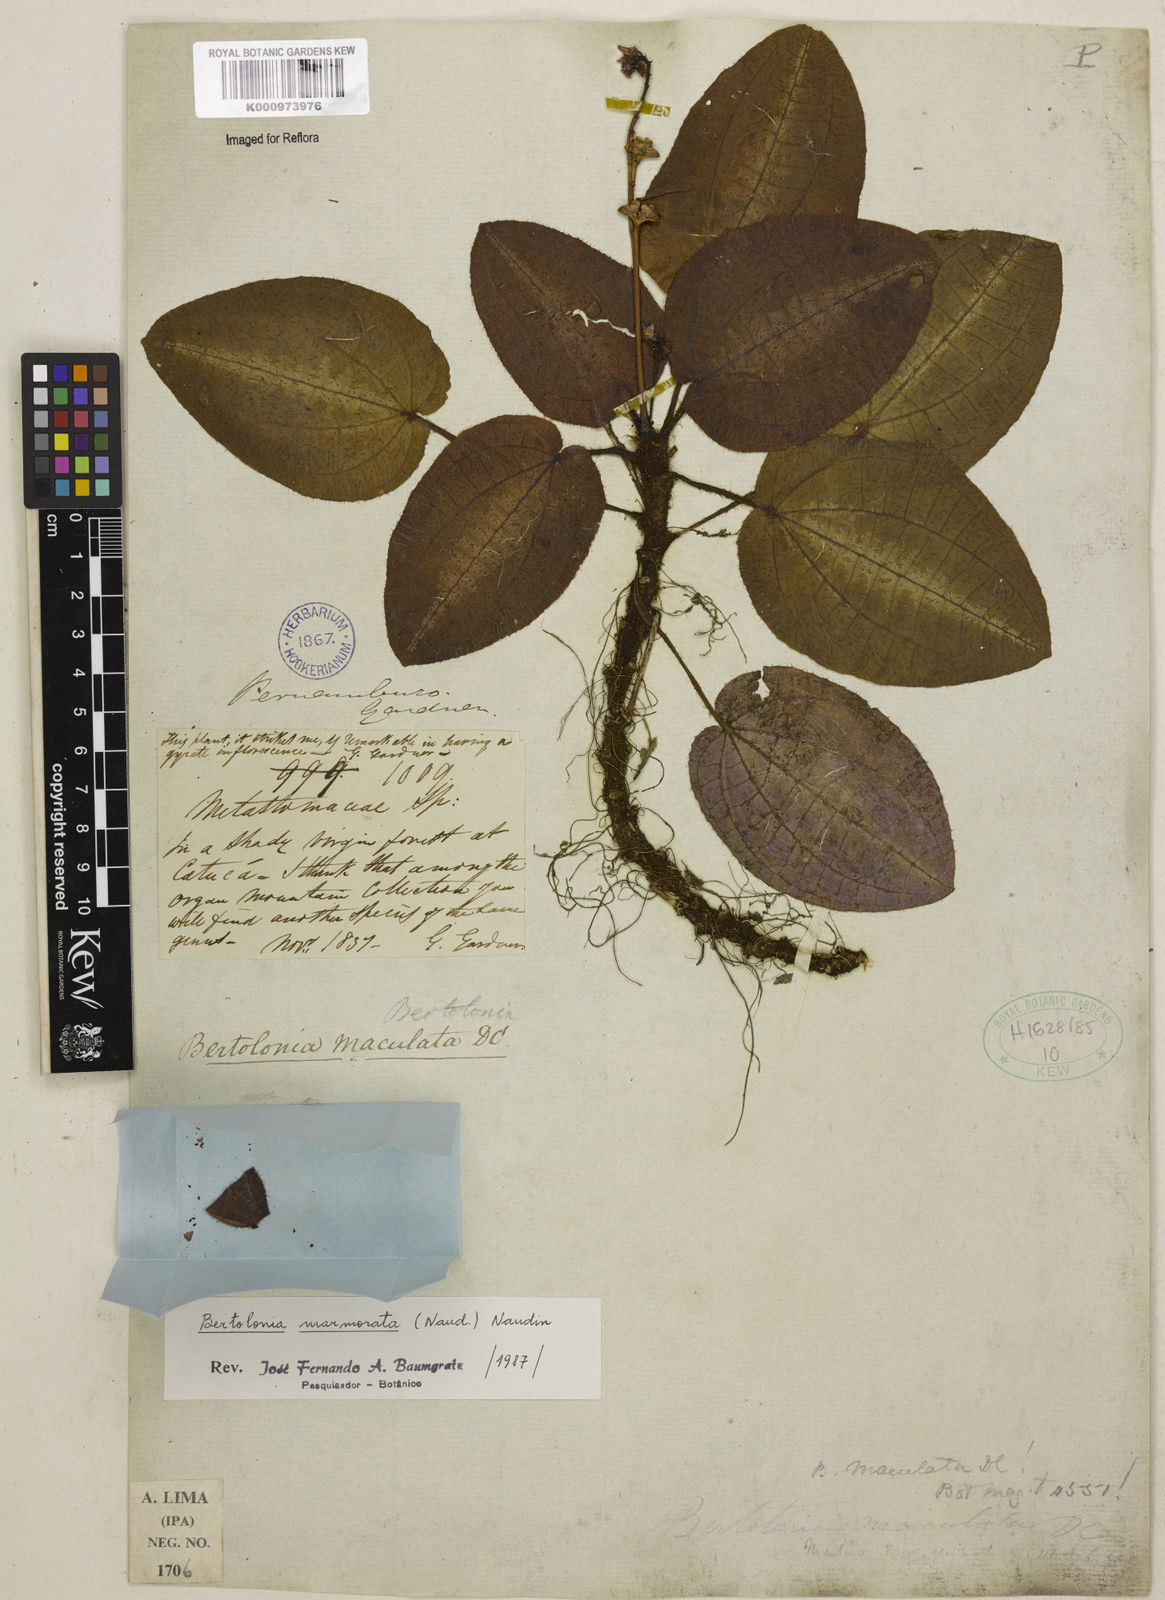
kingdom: Plantae
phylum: Tracheophyta
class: Magnoliopsida
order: Myrtales
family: Melastomataceae
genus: Bertolonia
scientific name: Bertolonia marmorata
